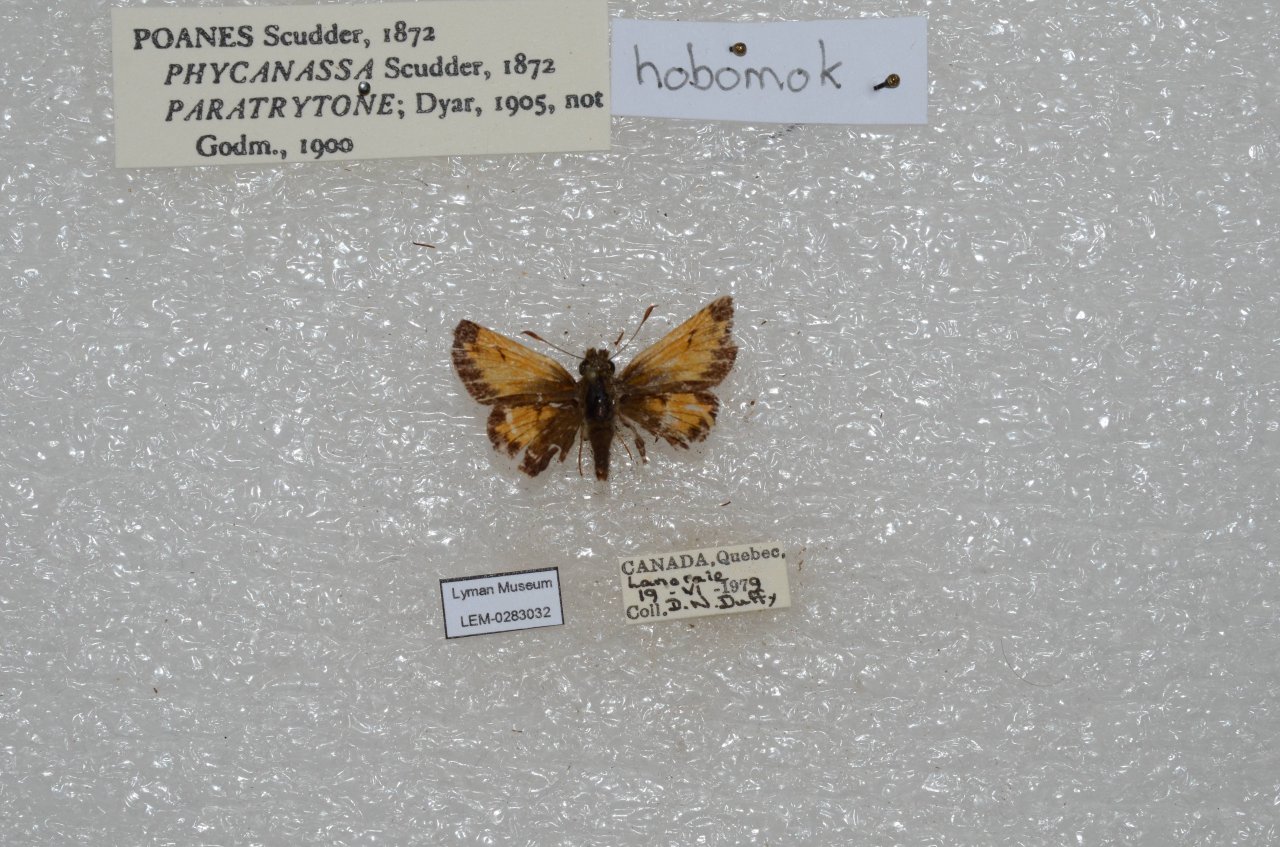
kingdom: Animalia
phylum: Arthropoda
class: Insecta
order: Lepidoptera
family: Hesperiidae
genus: Lon
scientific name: Lon hobomok
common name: Hobomok Skipper
